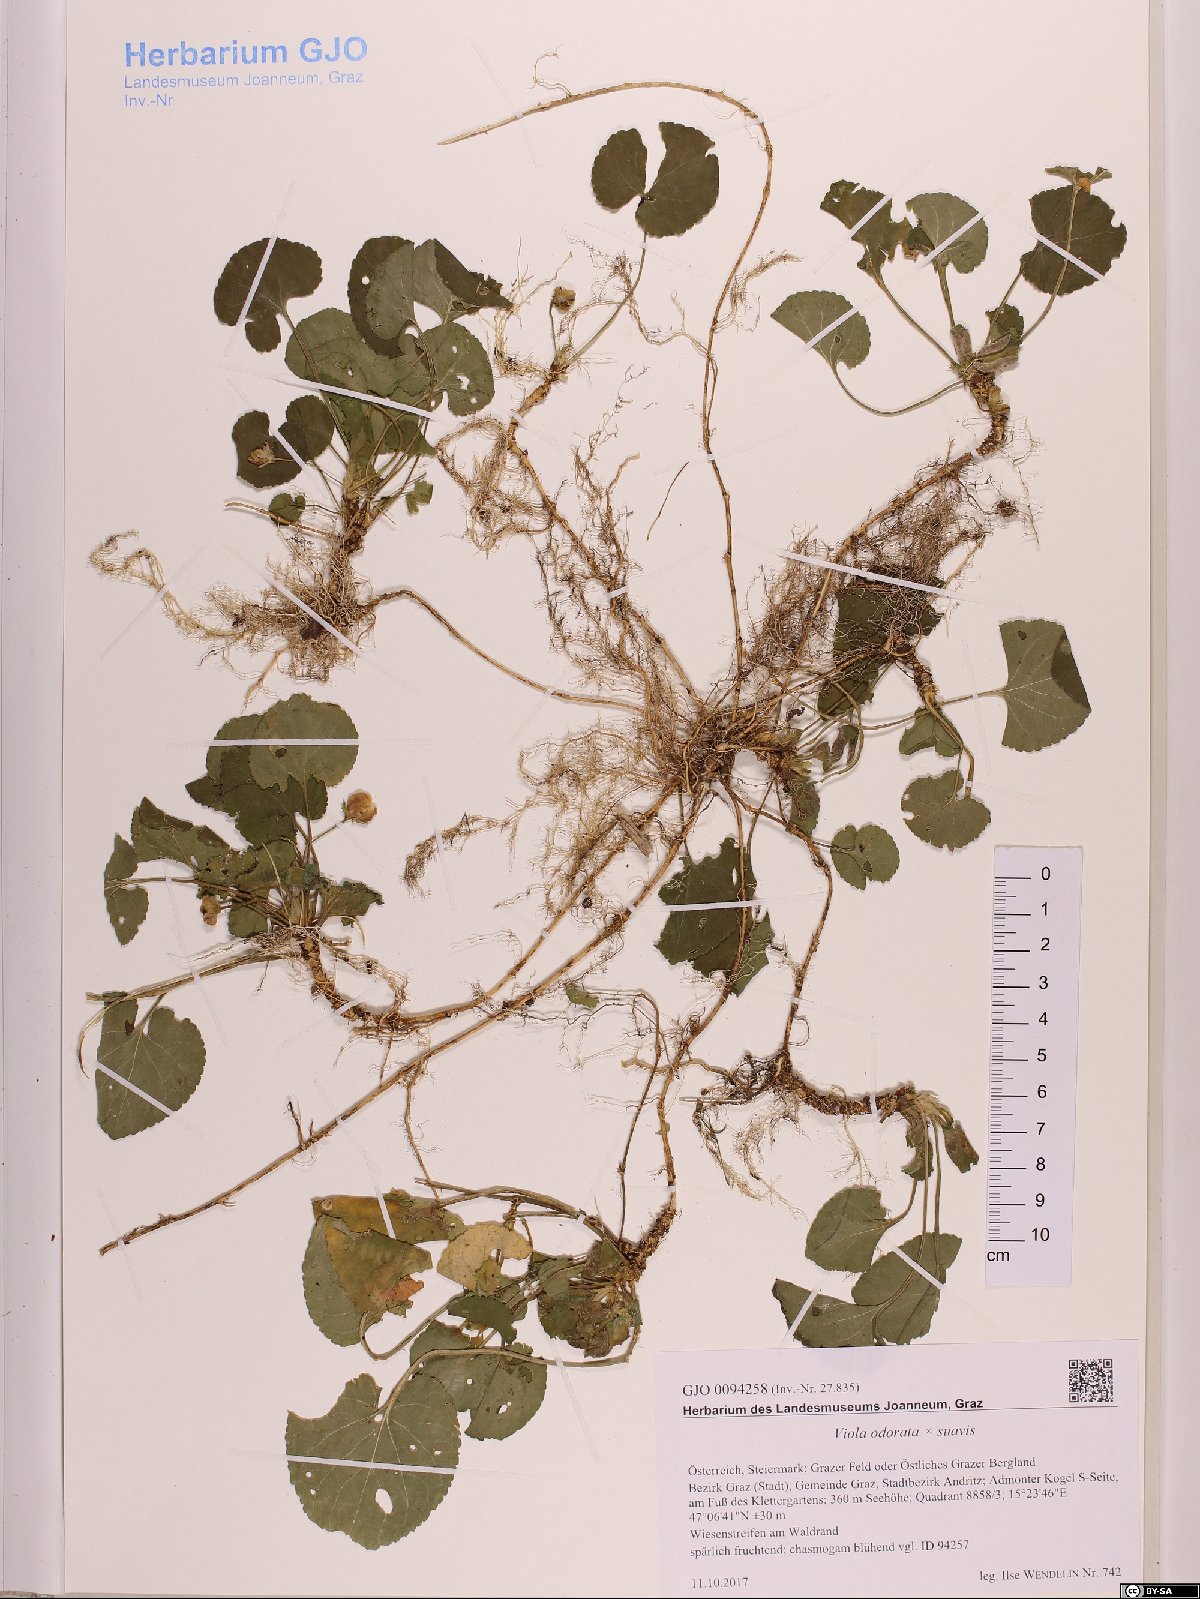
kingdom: Plantae
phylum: Tracheophyta
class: Magnoliopsida
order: Malpighiales
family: Violaceae
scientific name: Violaceae
